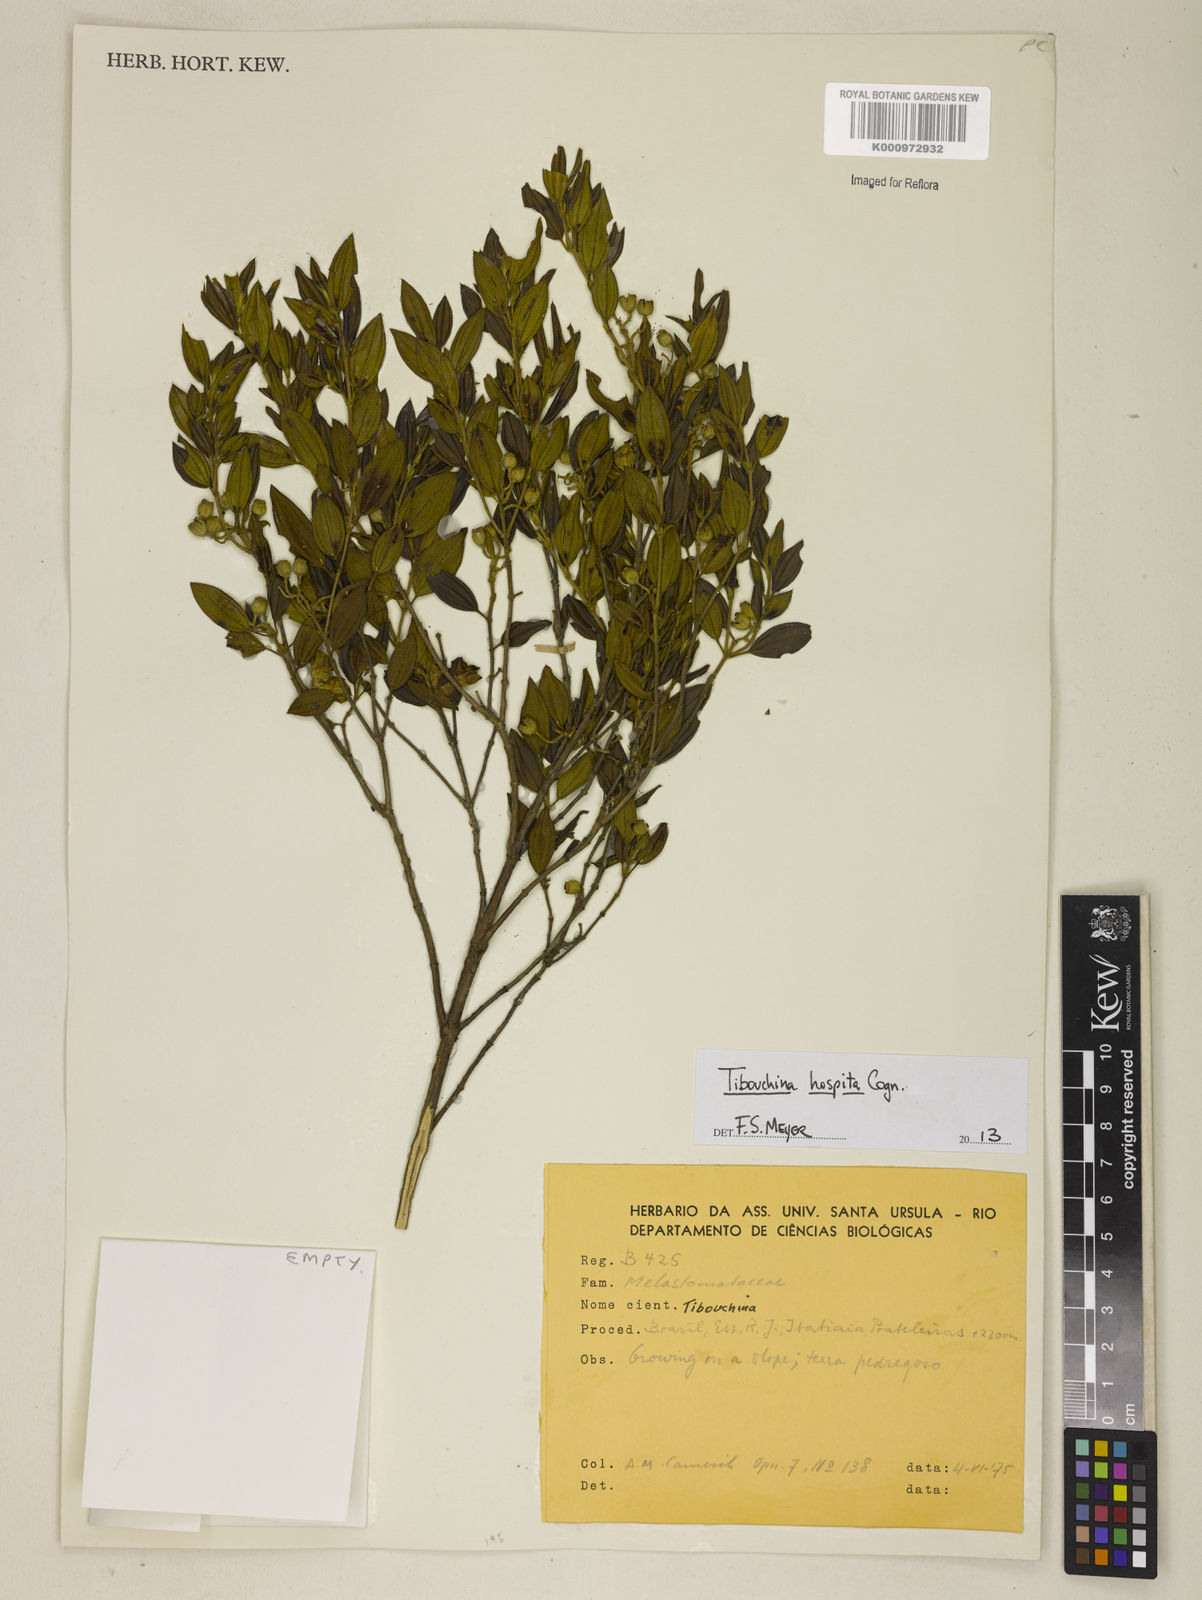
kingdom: Plantae
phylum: Tracheophyta
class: Magnoliopsida
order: Myrtales
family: Melastomataceae
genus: Pleroma
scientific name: Pleroma hospitum
